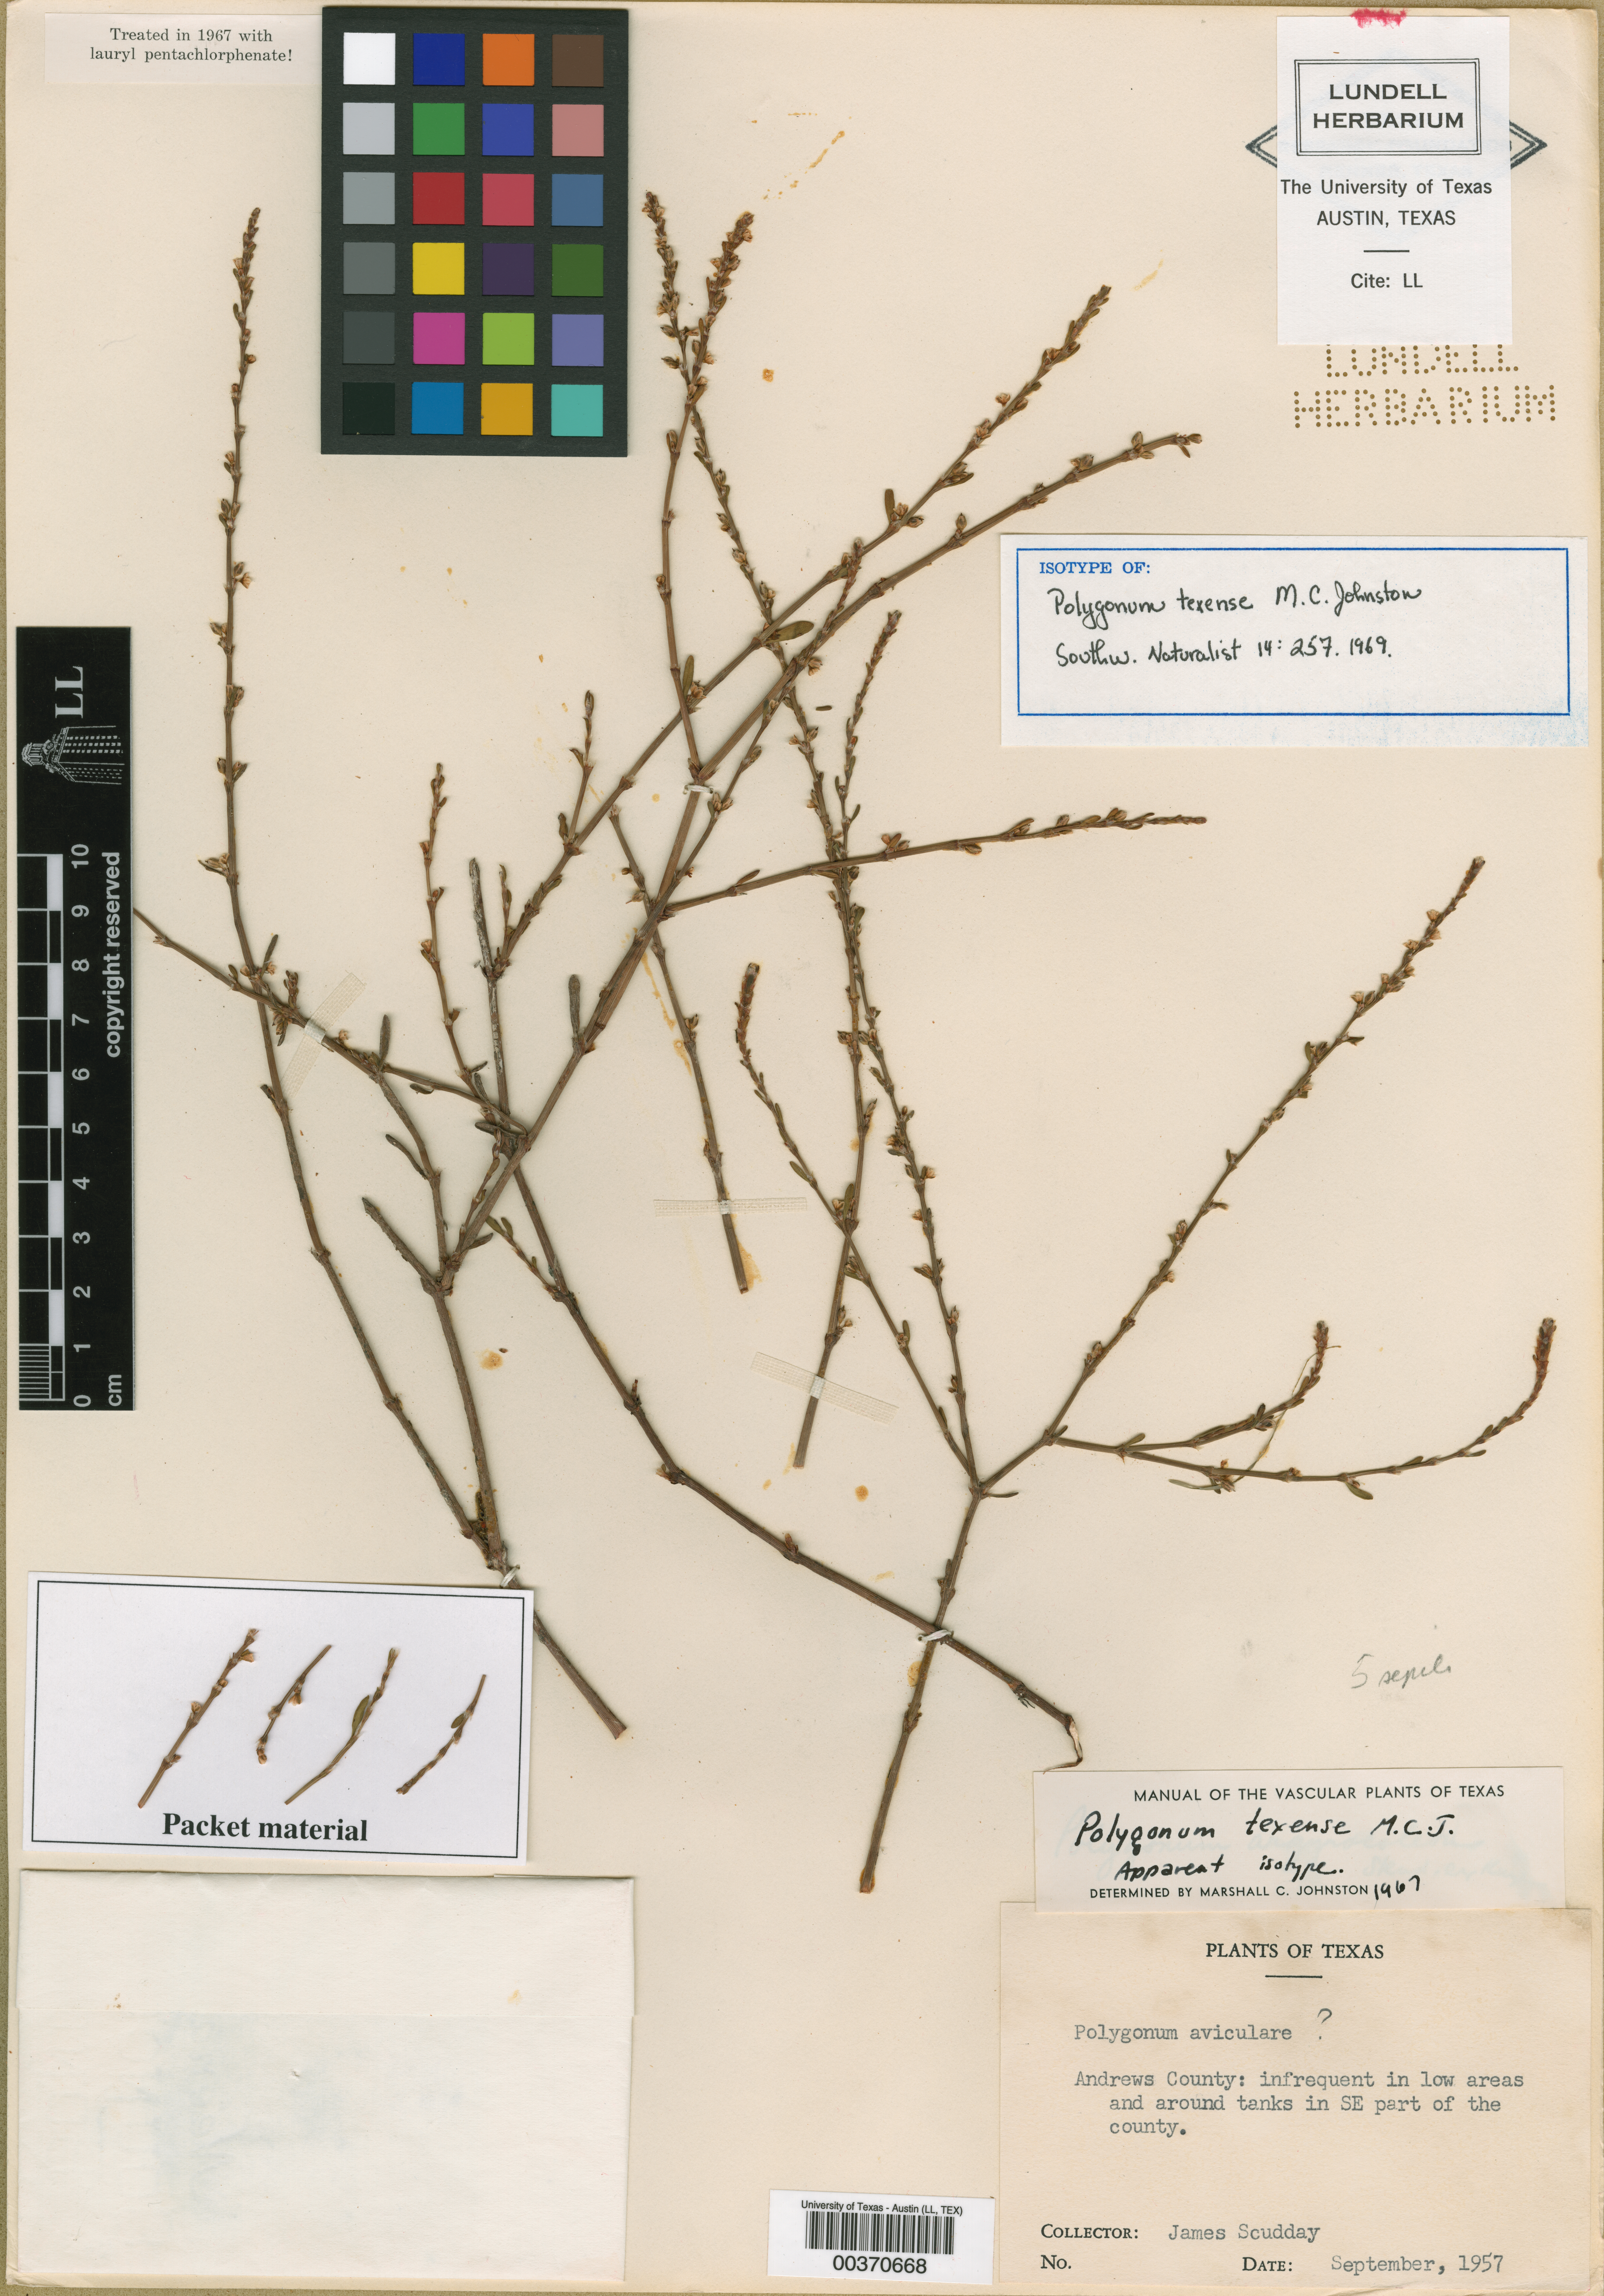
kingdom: Plantae
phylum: Tracheophyta
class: Magnoliopsida
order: Caryophyllales
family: Polygonaceae
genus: Polygonum
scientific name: Polygonum striatulum
